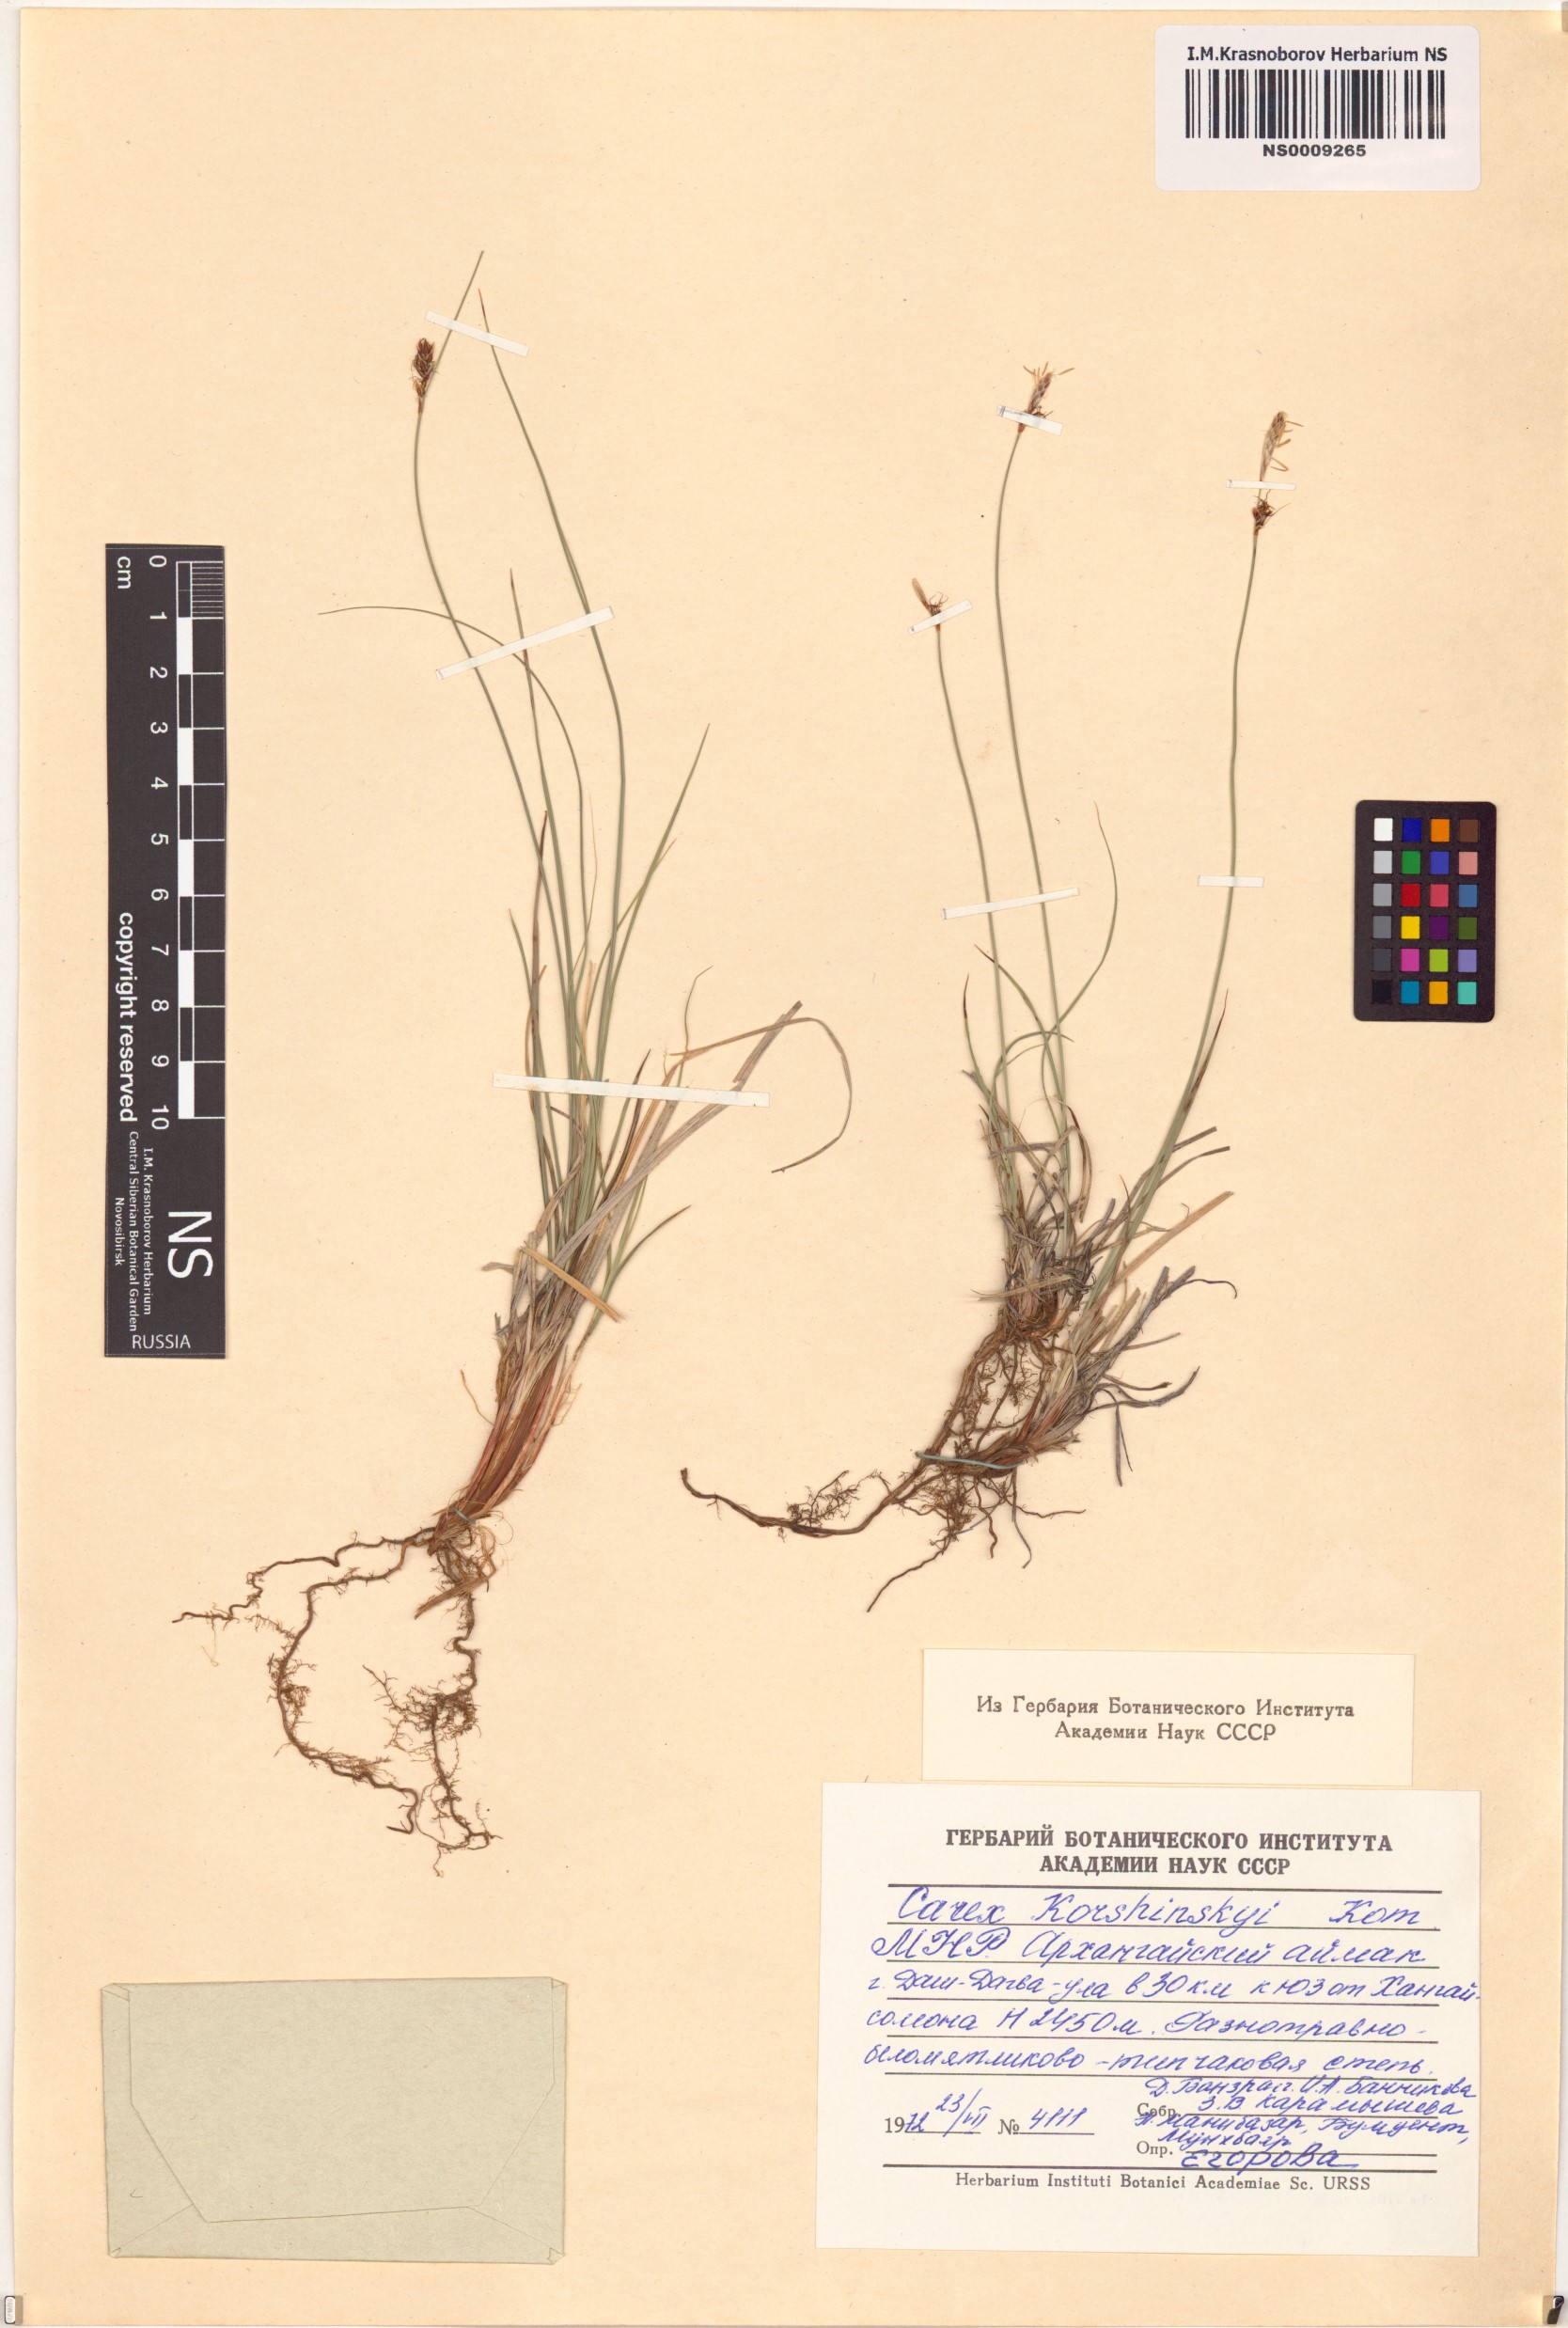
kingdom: Plantae
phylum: Tracheophyta
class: Liliopsida
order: Poales
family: Cyperaceae
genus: Carex
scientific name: Carex korshinskyi
